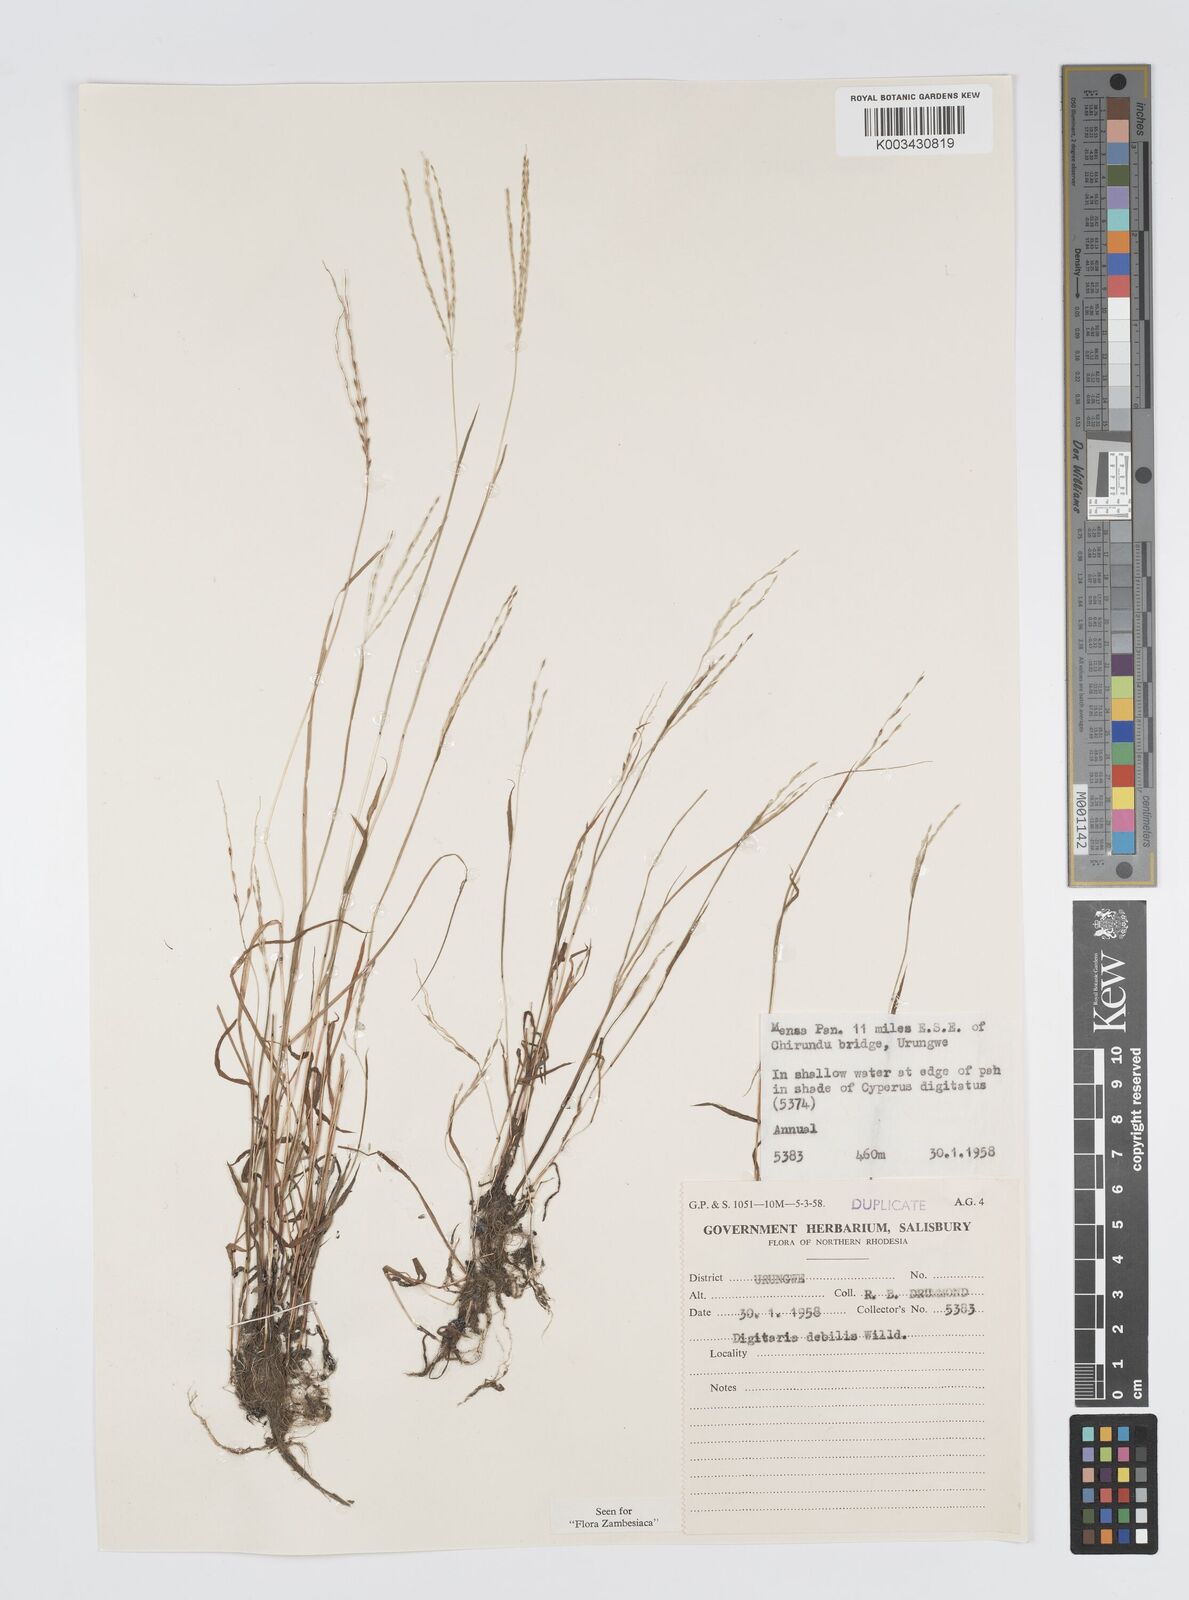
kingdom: Plantae
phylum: Tracheophyta
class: Liliopsida
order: Poales
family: Poaceae
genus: Digitaria
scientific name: Digitaria debilis
